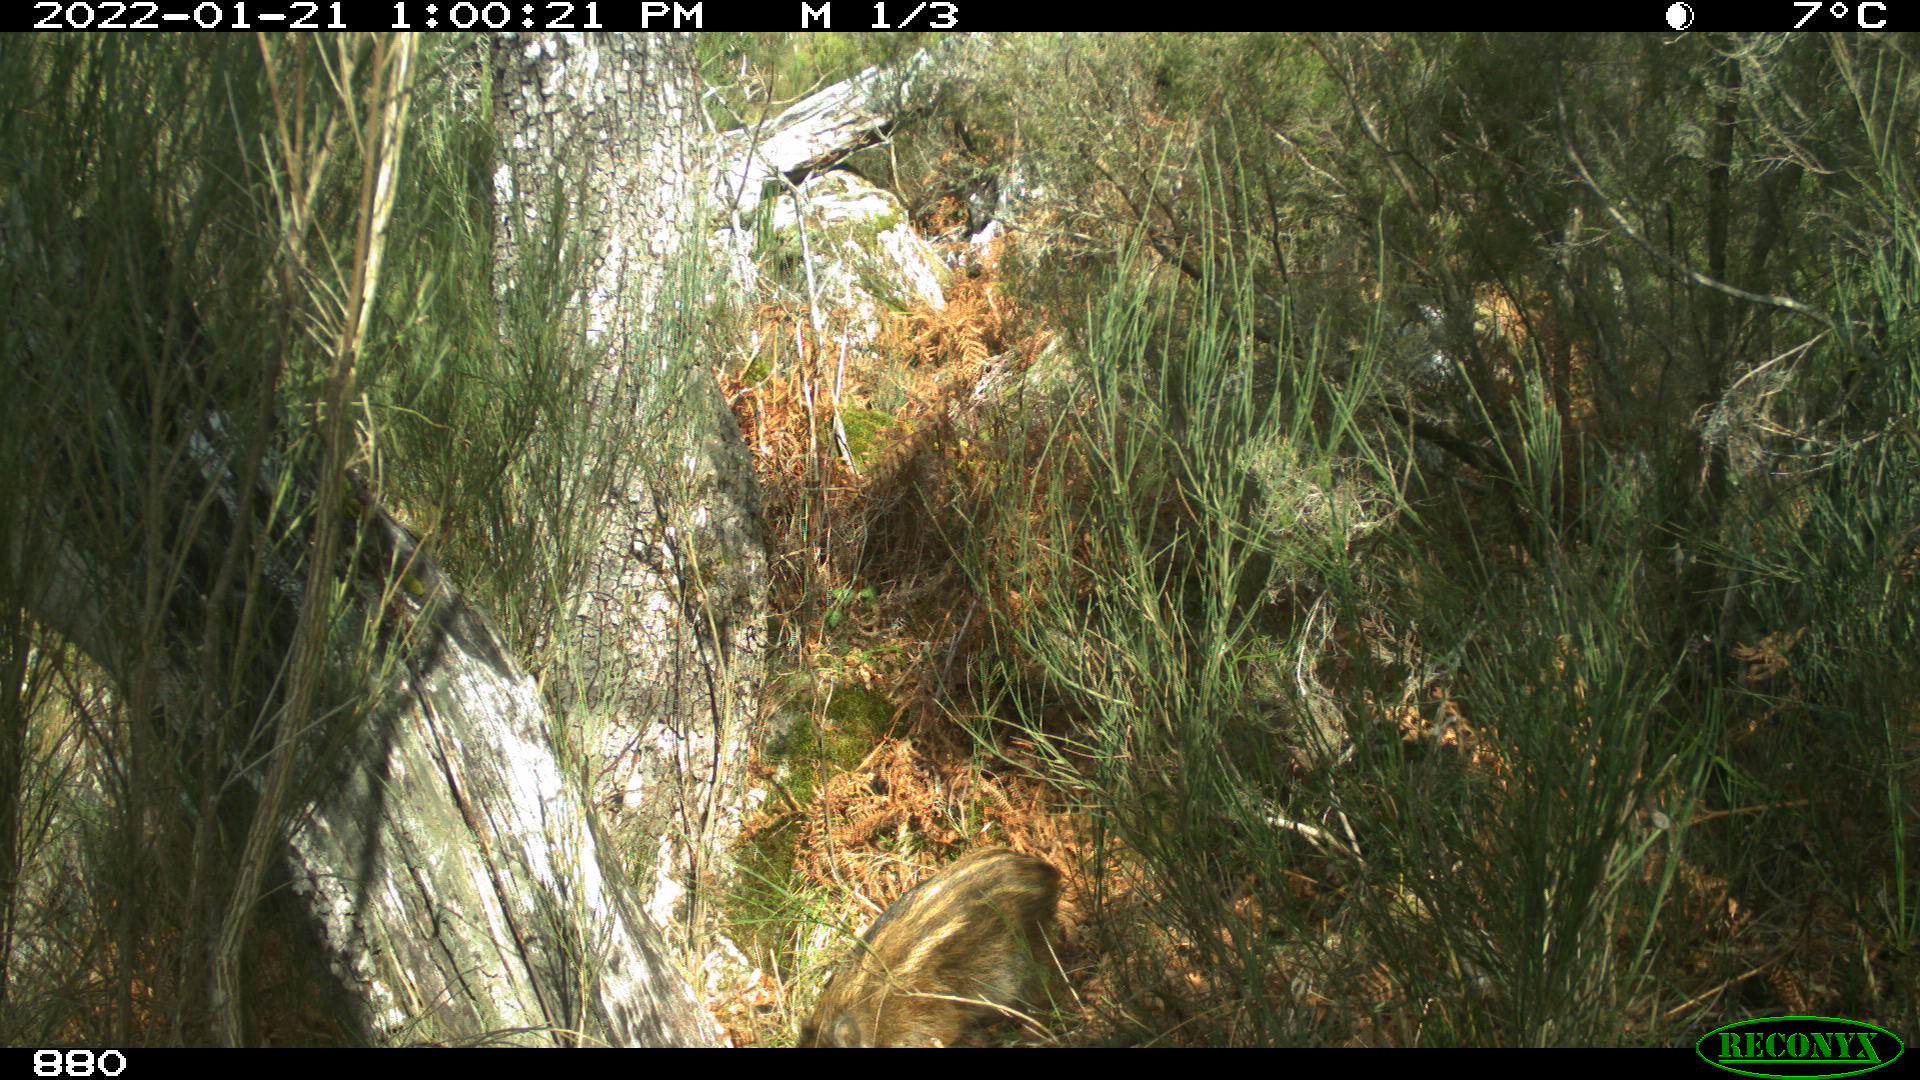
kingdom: Animalia
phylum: Chordata
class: Mammalia
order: Artiodactyla
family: Suidae
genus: Sus
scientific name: Sus scrofa
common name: Wild boar
